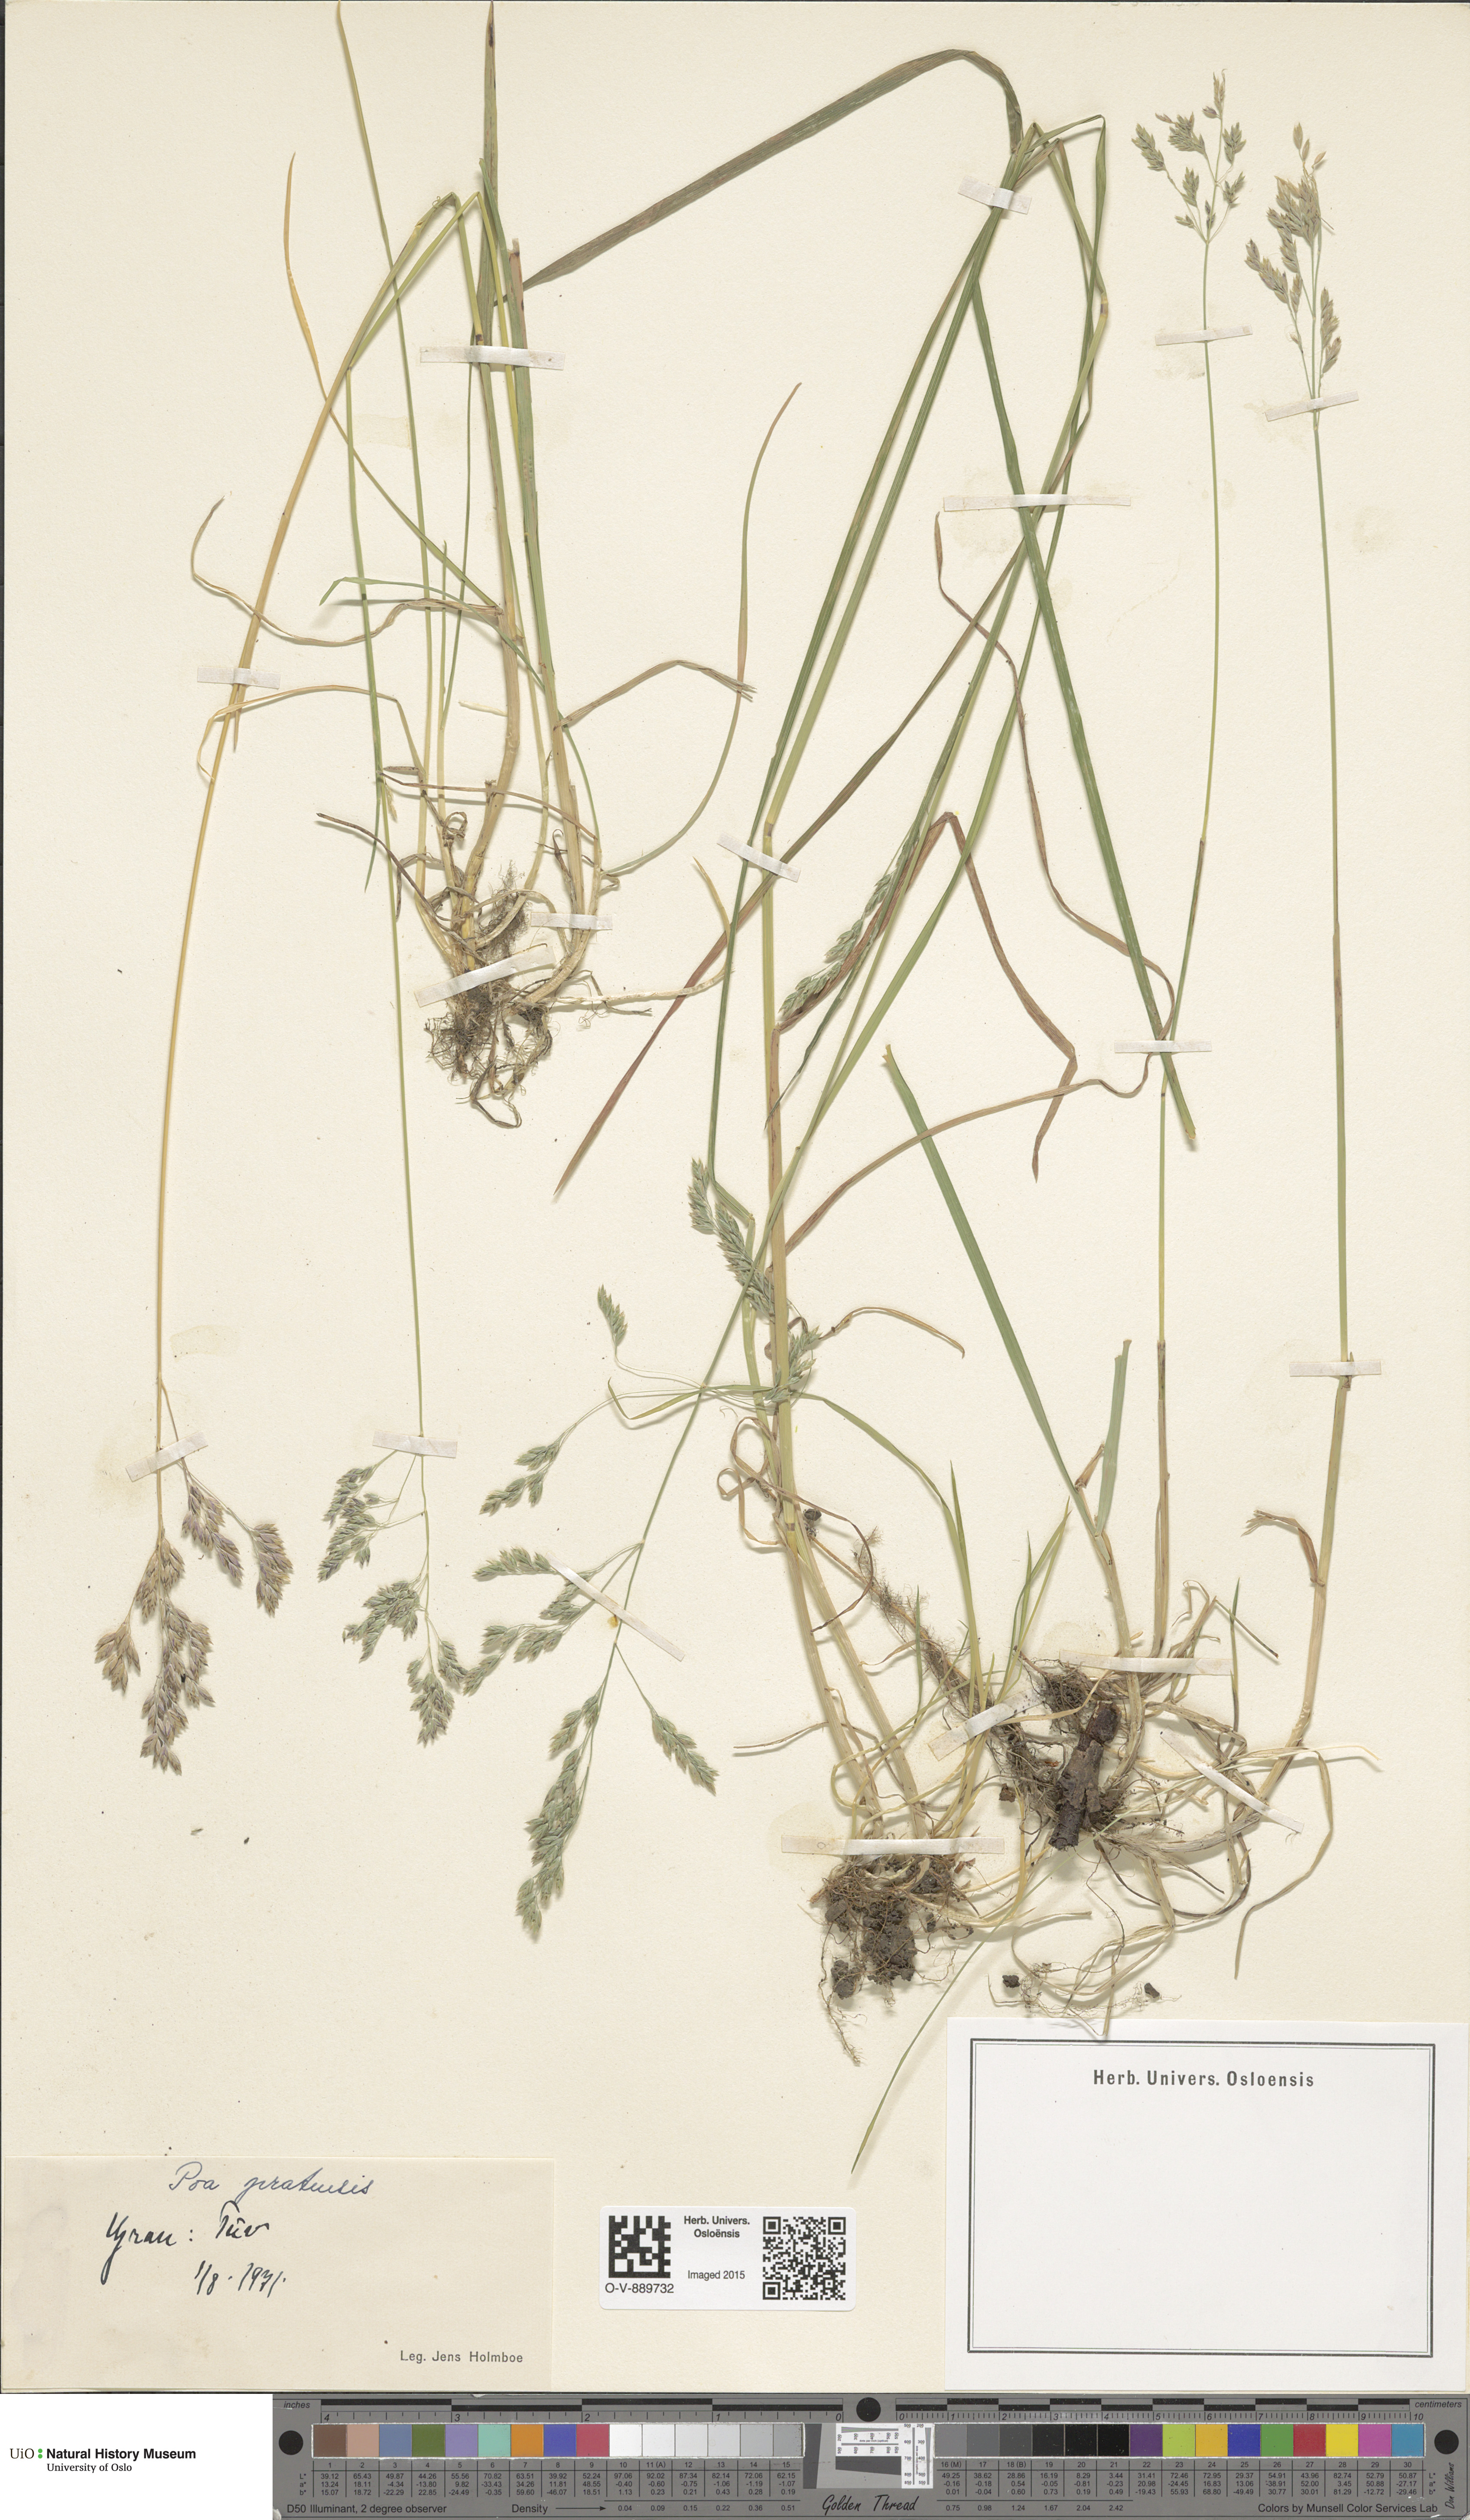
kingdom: Plantae
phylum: Tracheophyta
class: Liliopsida
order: Poales
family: Poaceae
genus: Poa
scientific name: Poa pratensis
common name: Kentucky bluegrass
